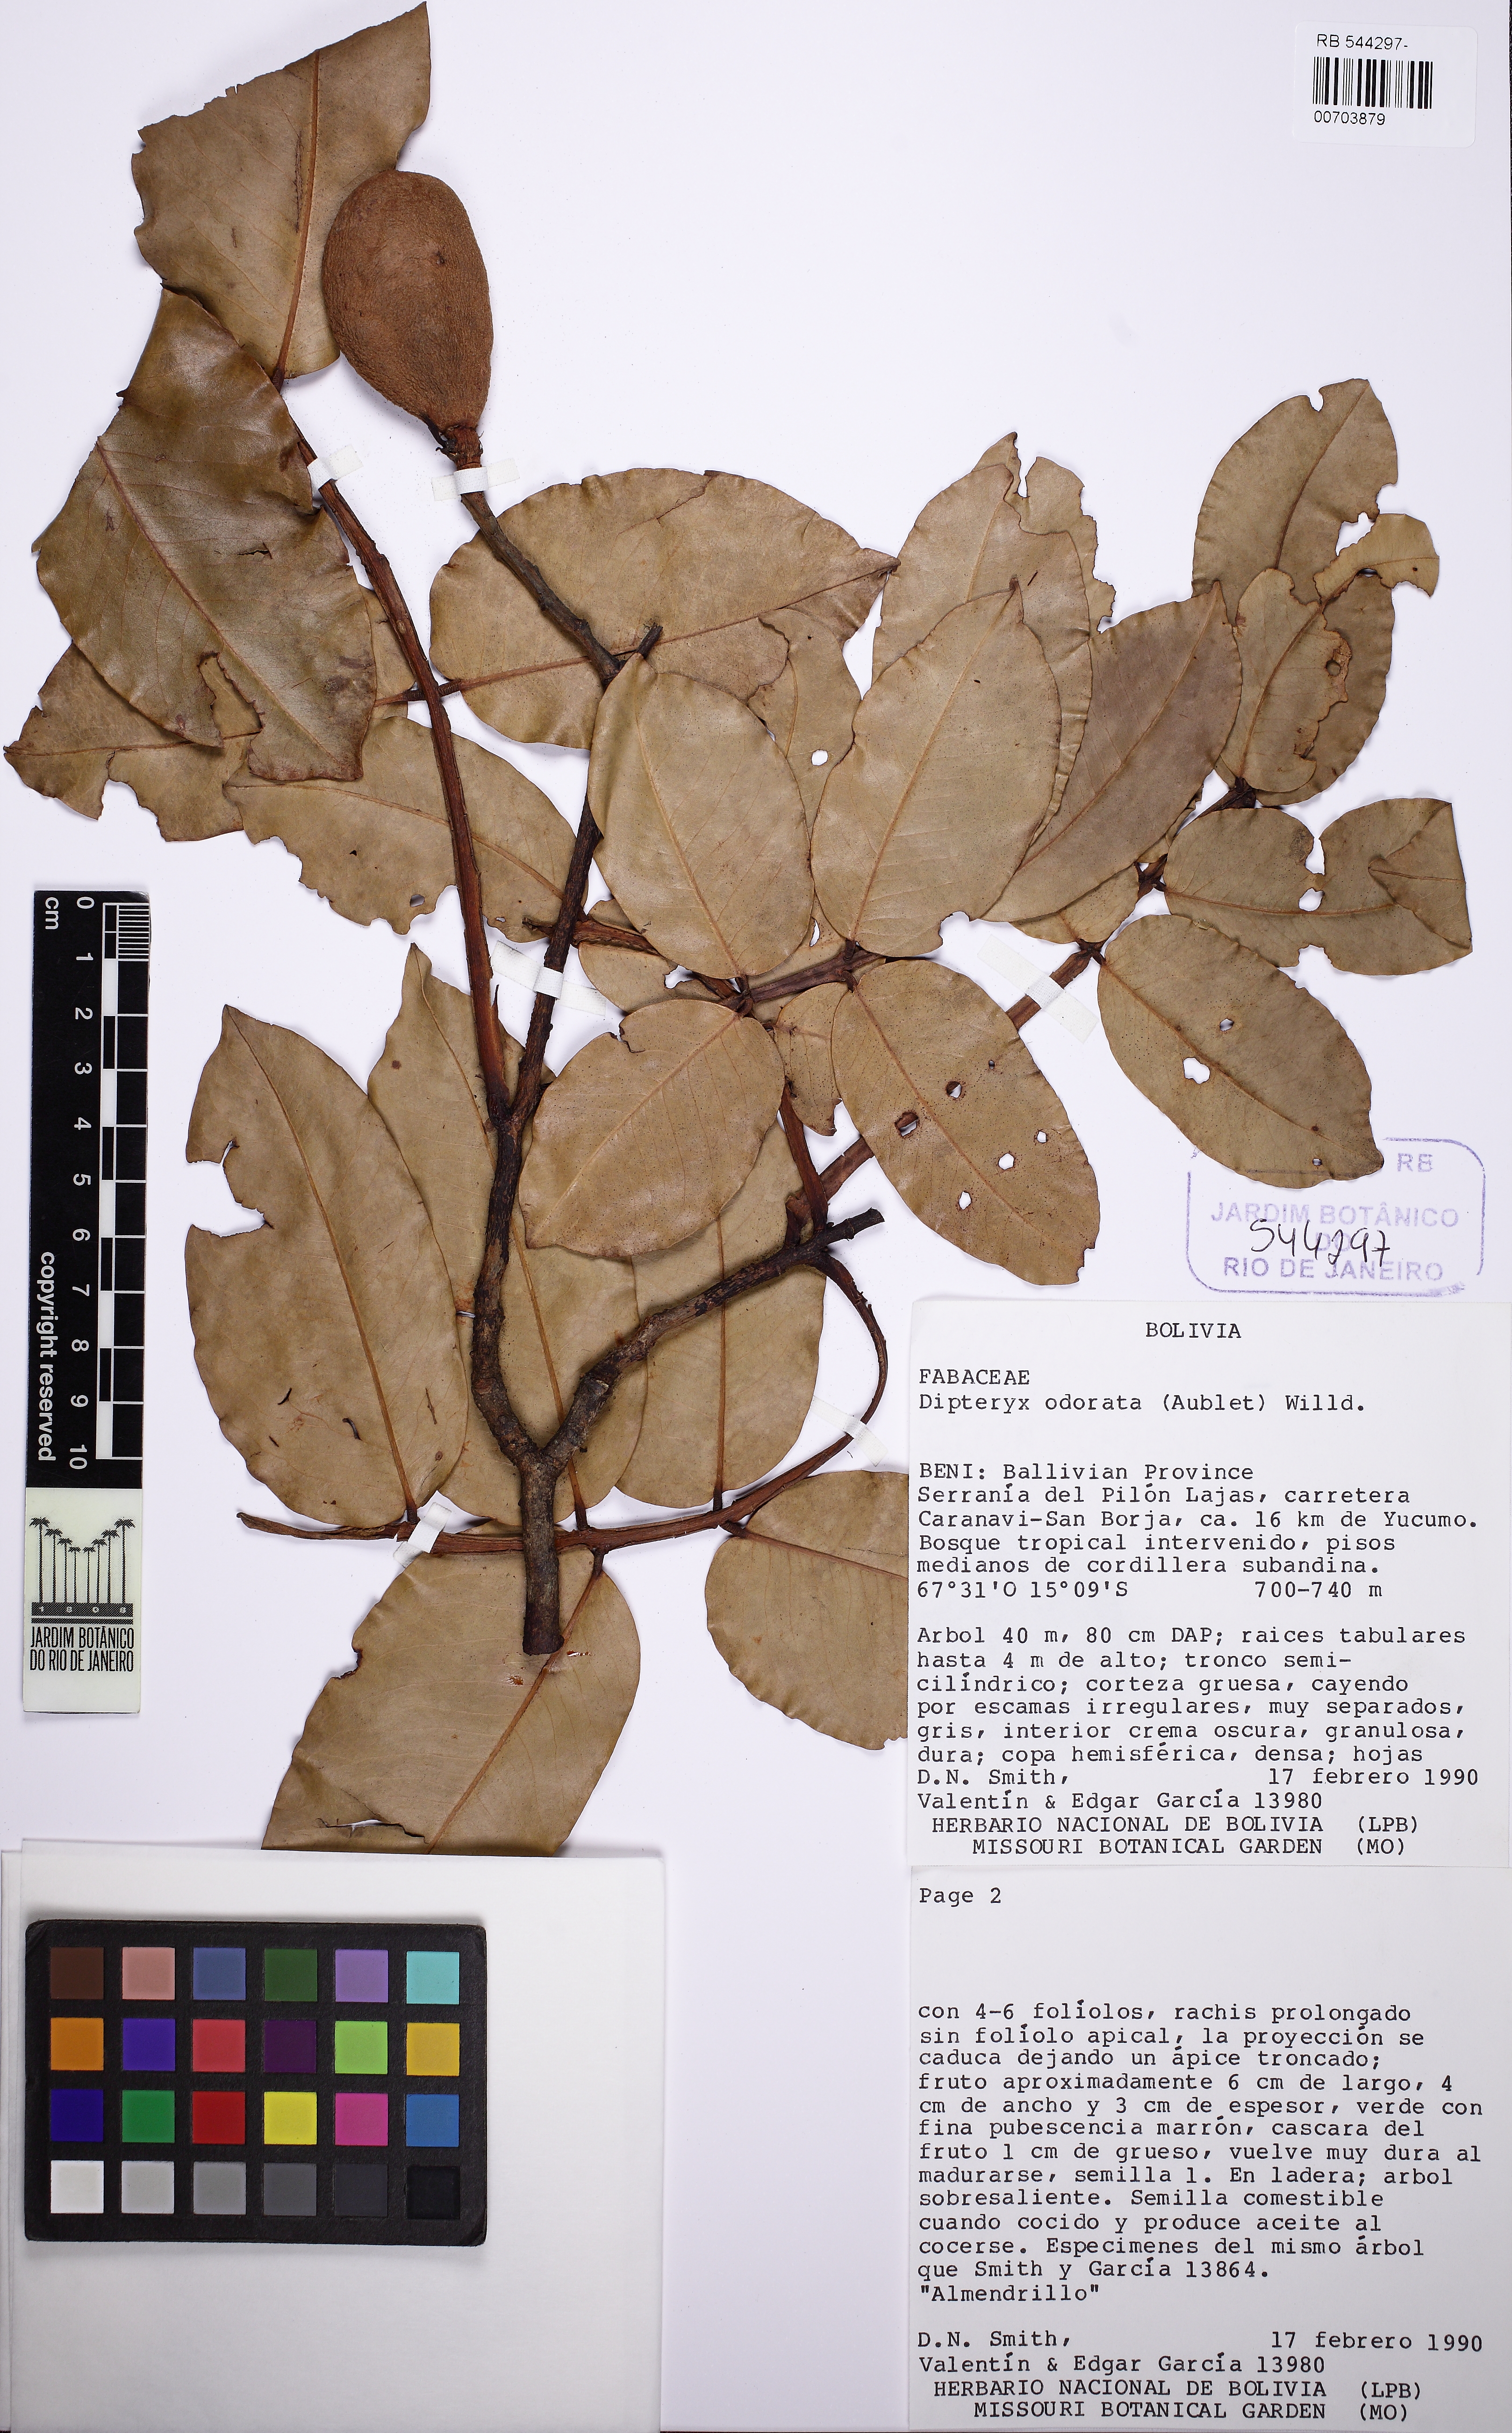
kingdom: Plantae
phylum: Tracheophyta
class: Magnoliopsida
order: Fabales
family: Fabaceae
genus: Dipteryx
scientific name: Dipteryx ferrea
